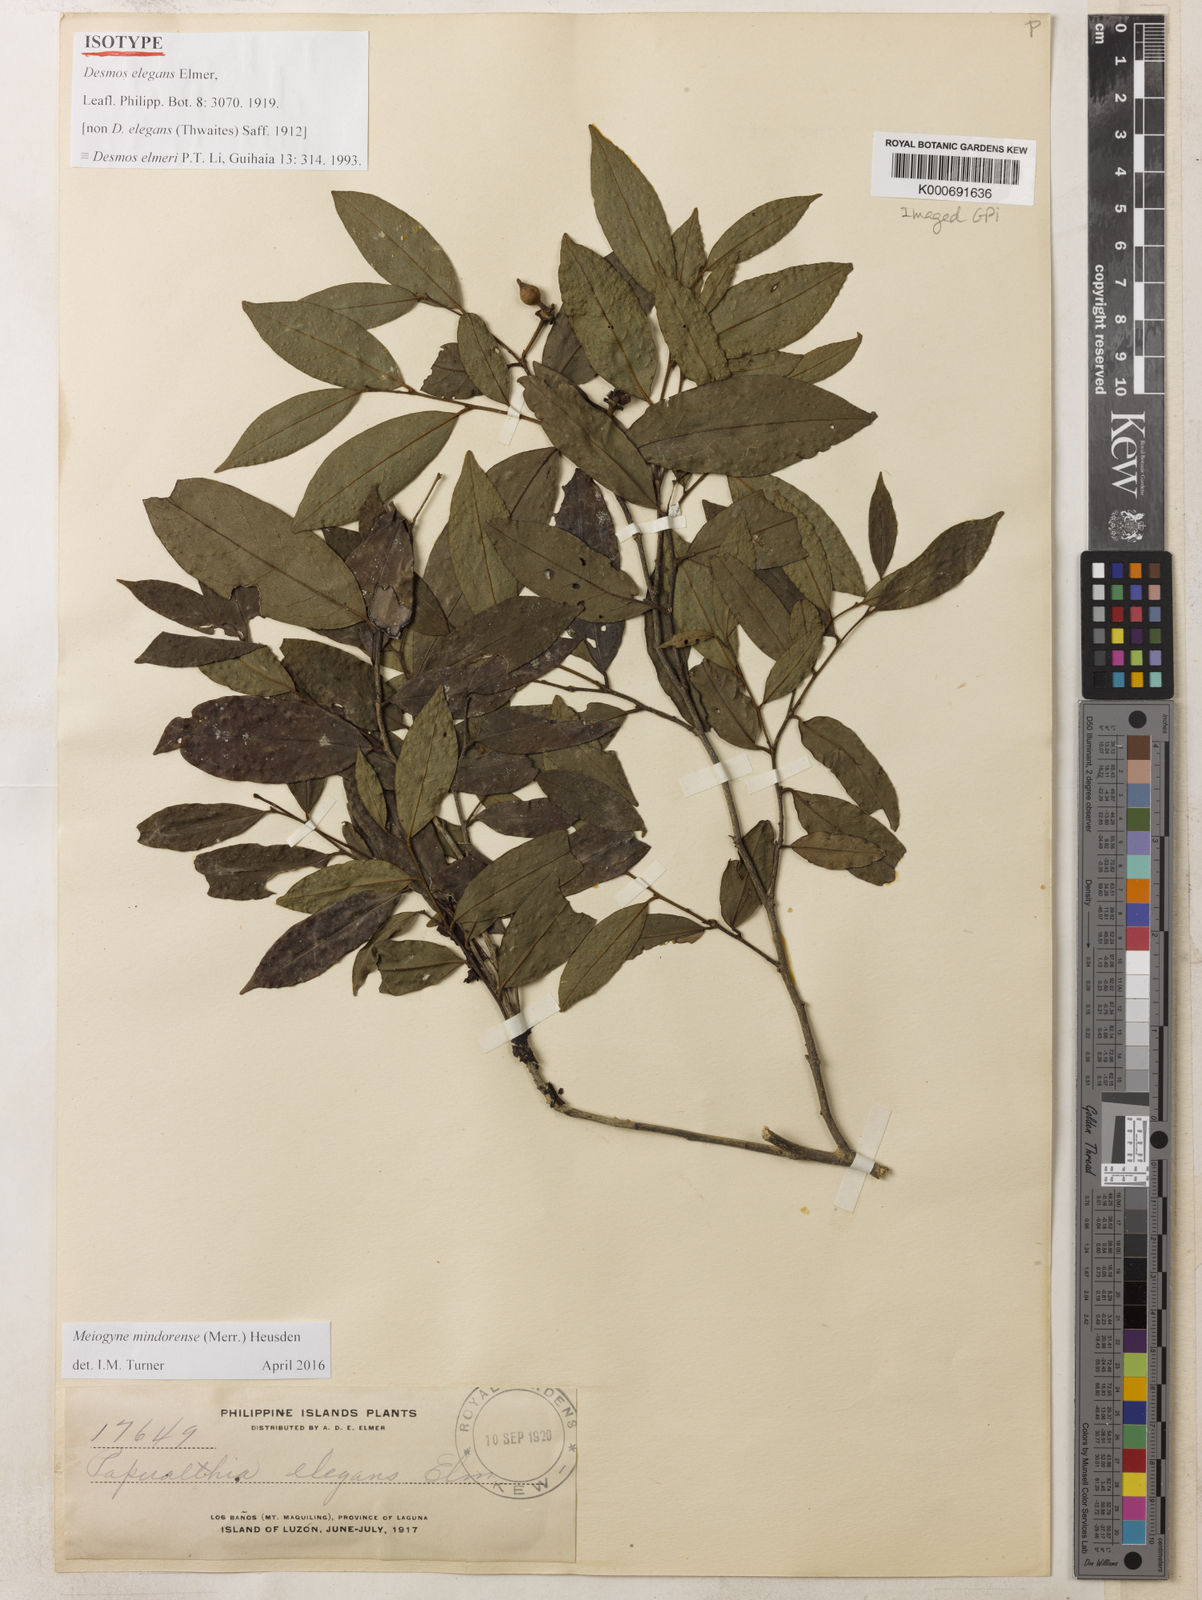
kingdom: Plantae
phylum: Tracheophyta
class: Magnoliopsida
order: Magnoliales
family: Annonaceae
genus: Polyalthia
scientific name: Polyalthia
